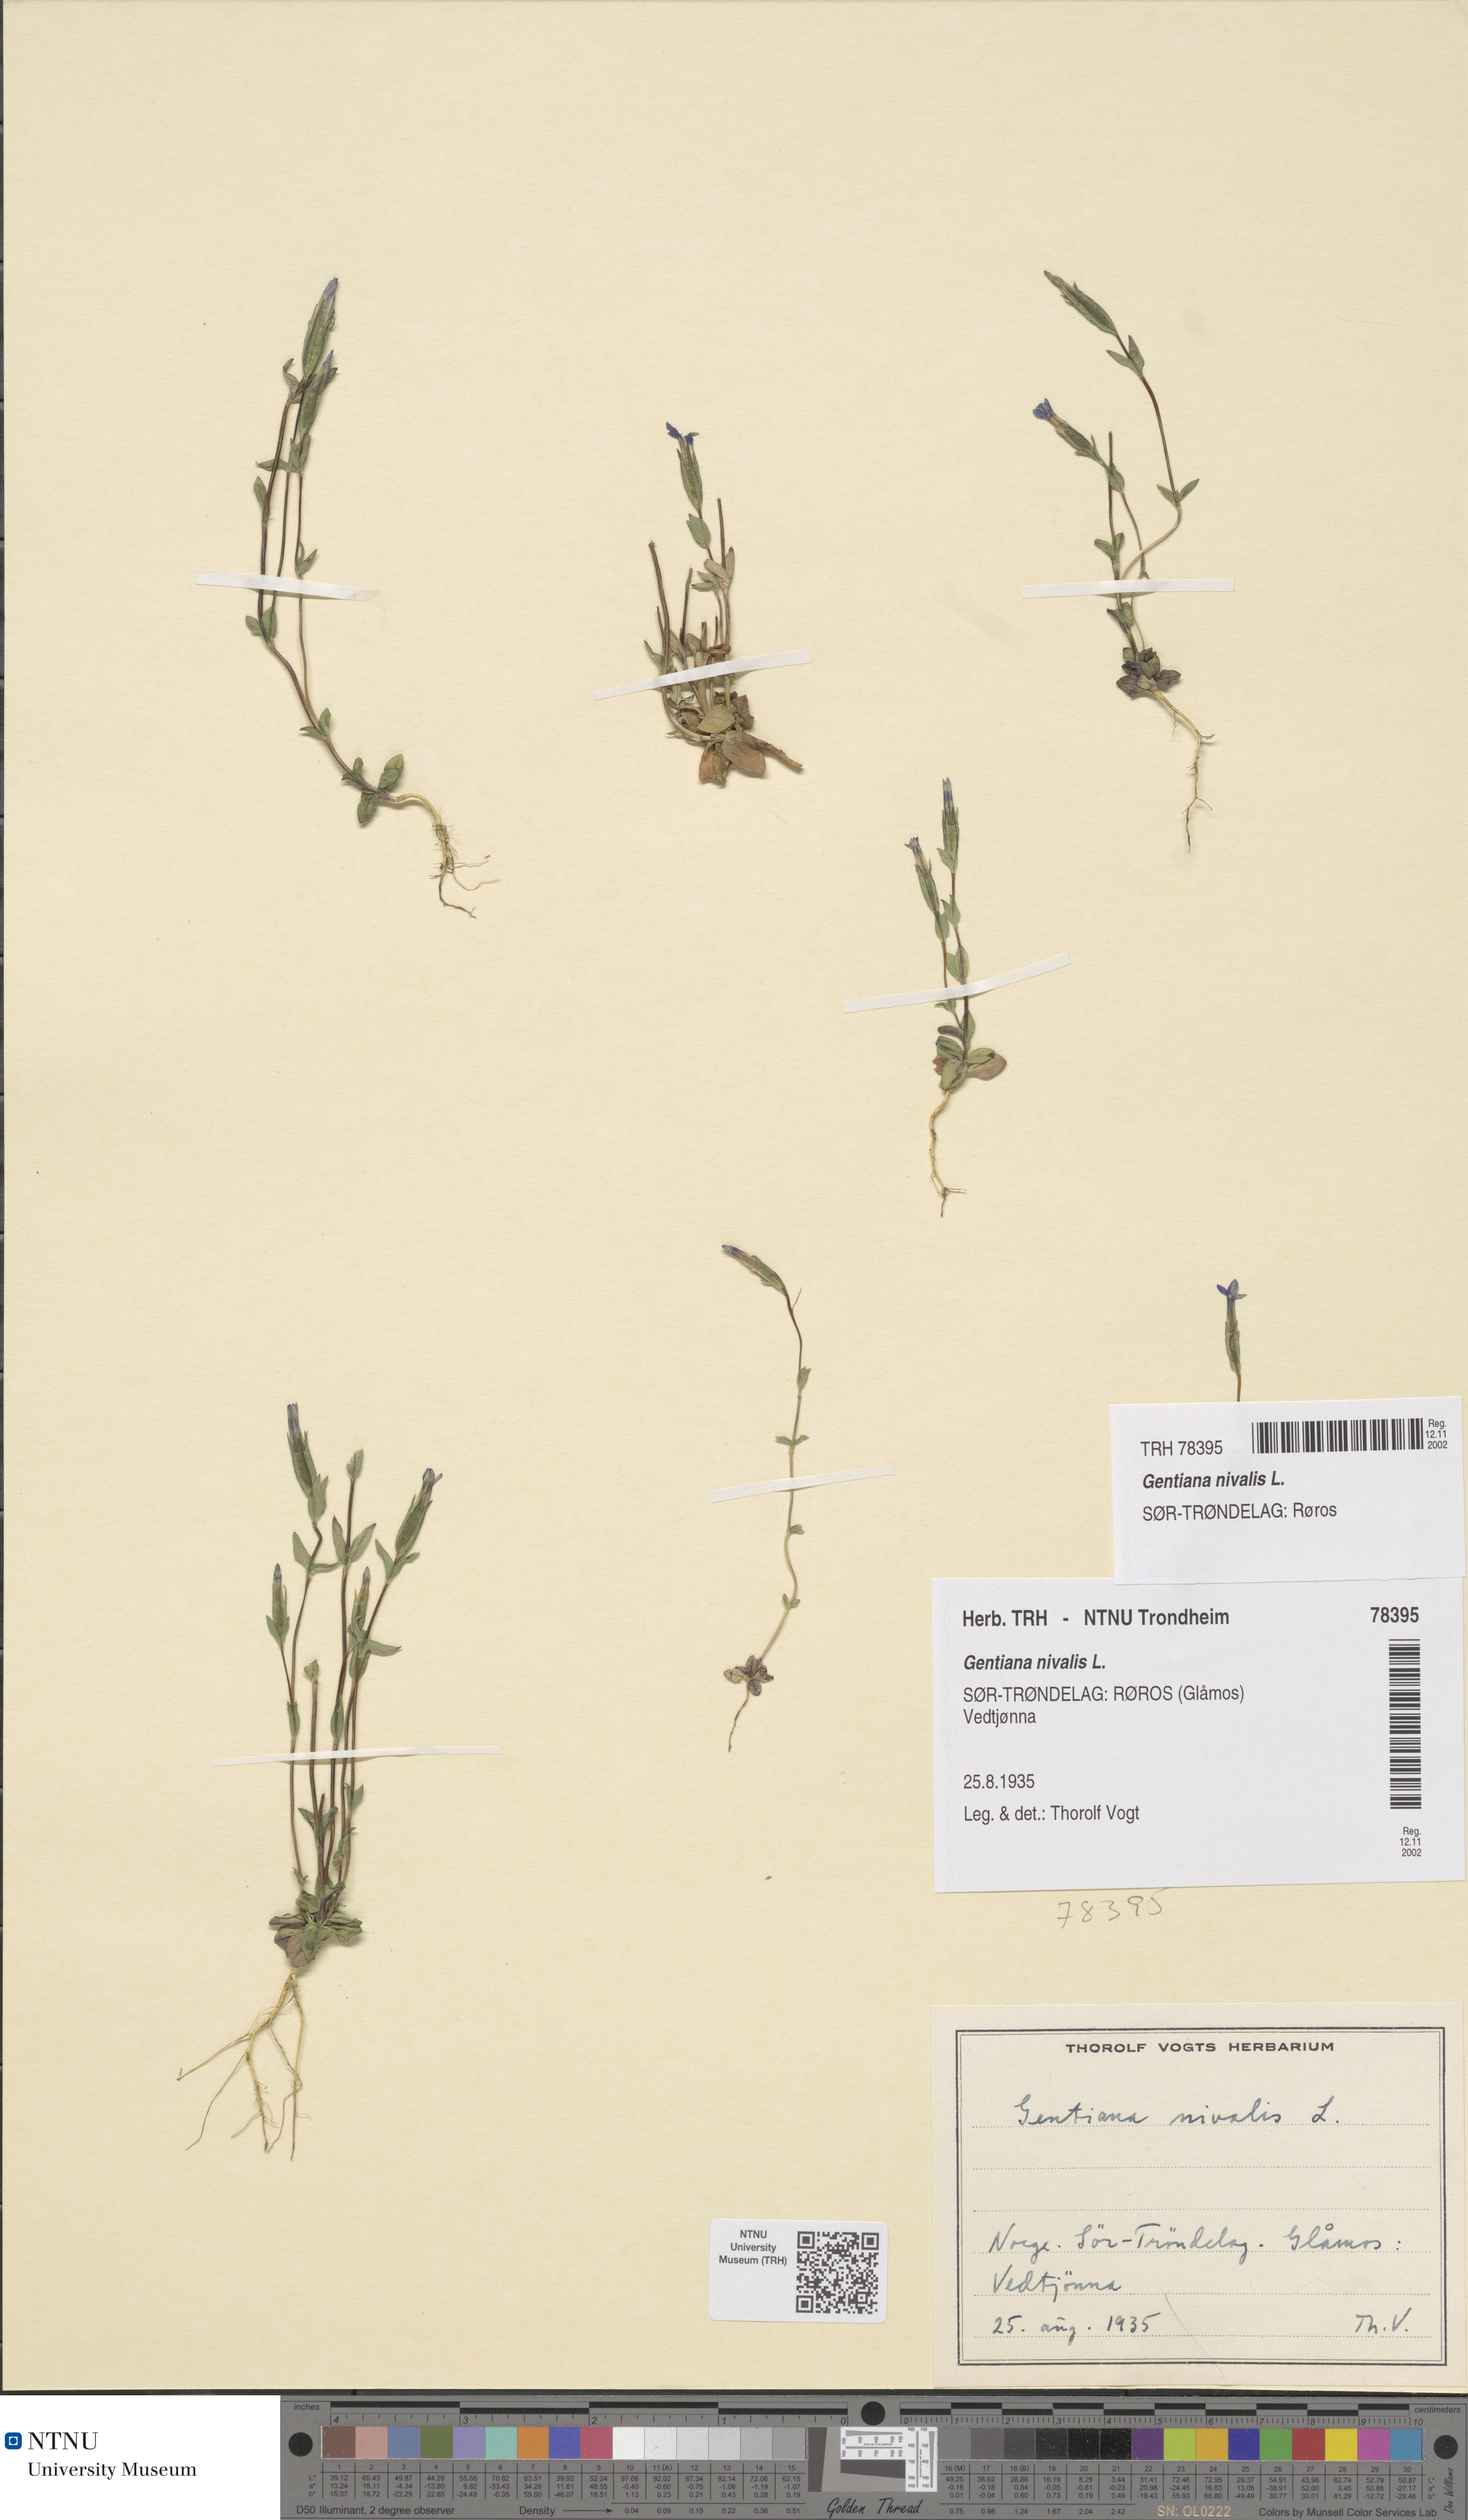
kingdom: Plantae
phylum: Tracheophyta
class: Magnoliopsida
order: Gentianales
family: Gentianaceae
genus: Gentiana
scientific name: Gentiana nivalis
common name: Alpine gentian
